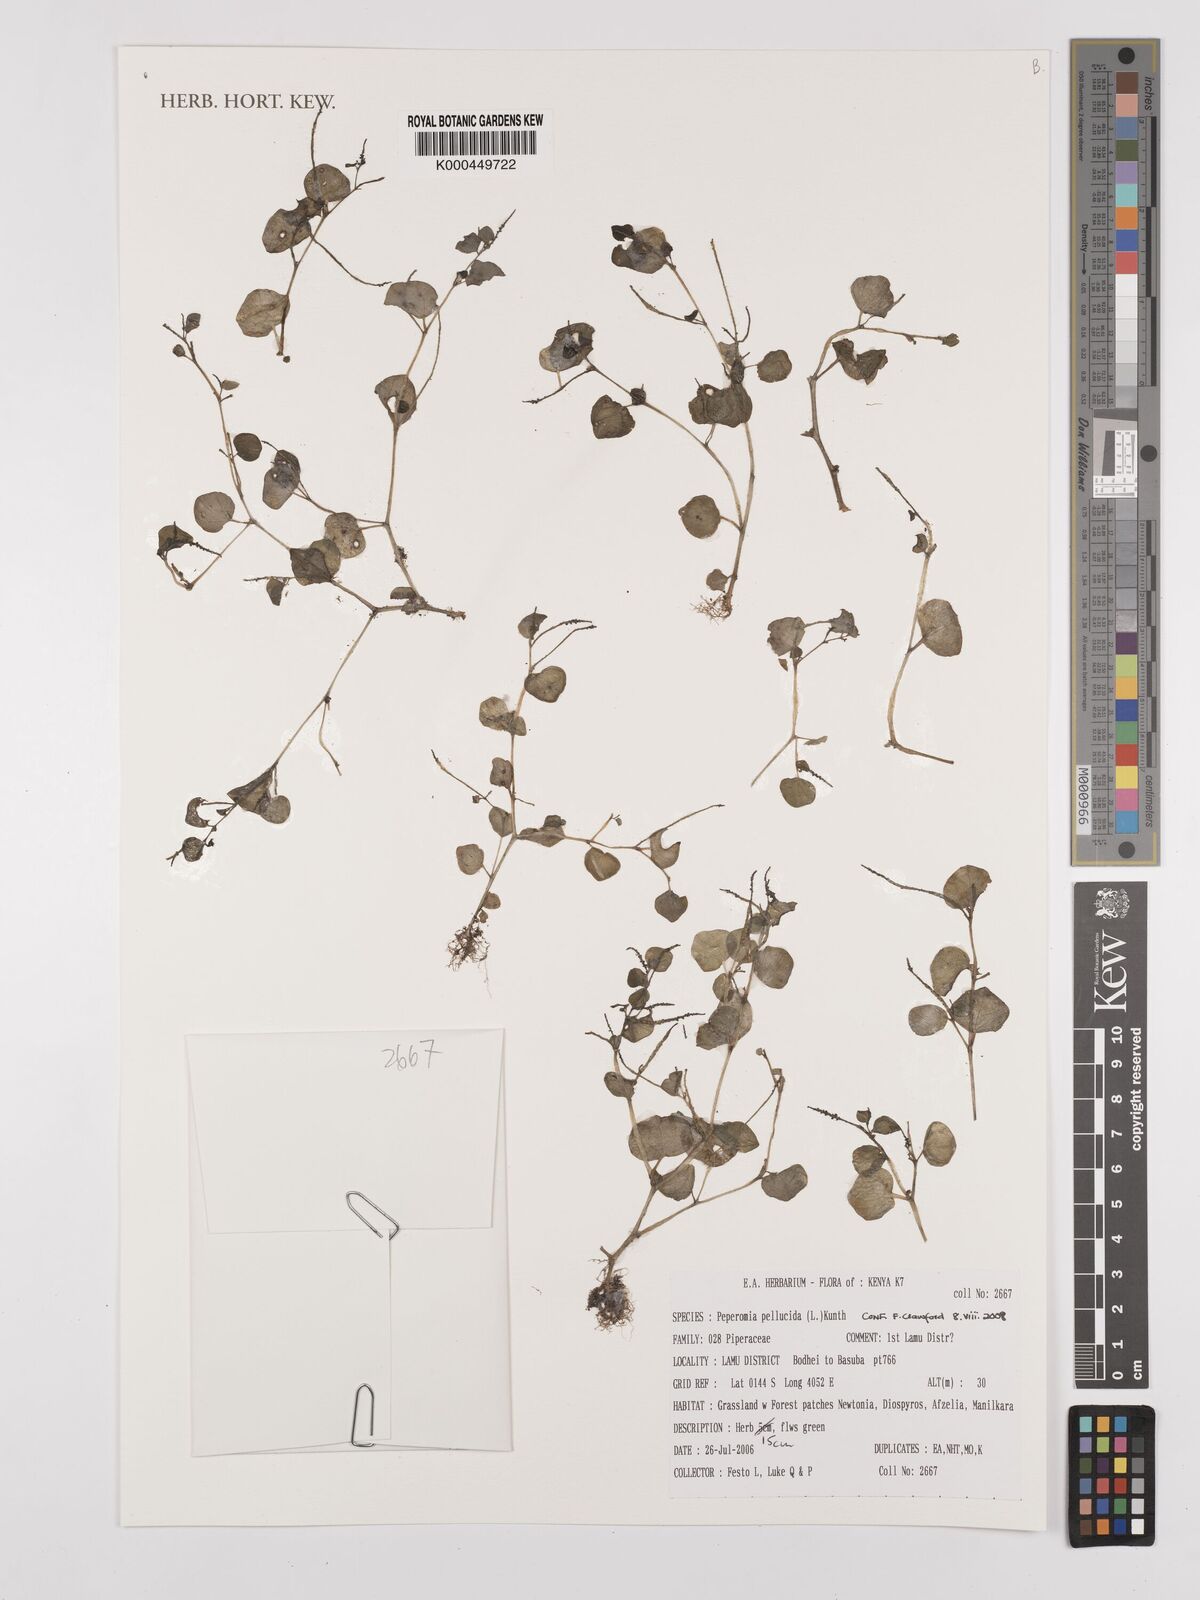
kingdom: Plantae
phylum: Tracheophyta
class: Magnoliopsida
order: Piperales
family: Piperaceae
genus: Peperomia
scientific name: Peperomia pellucida
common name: Man to man
